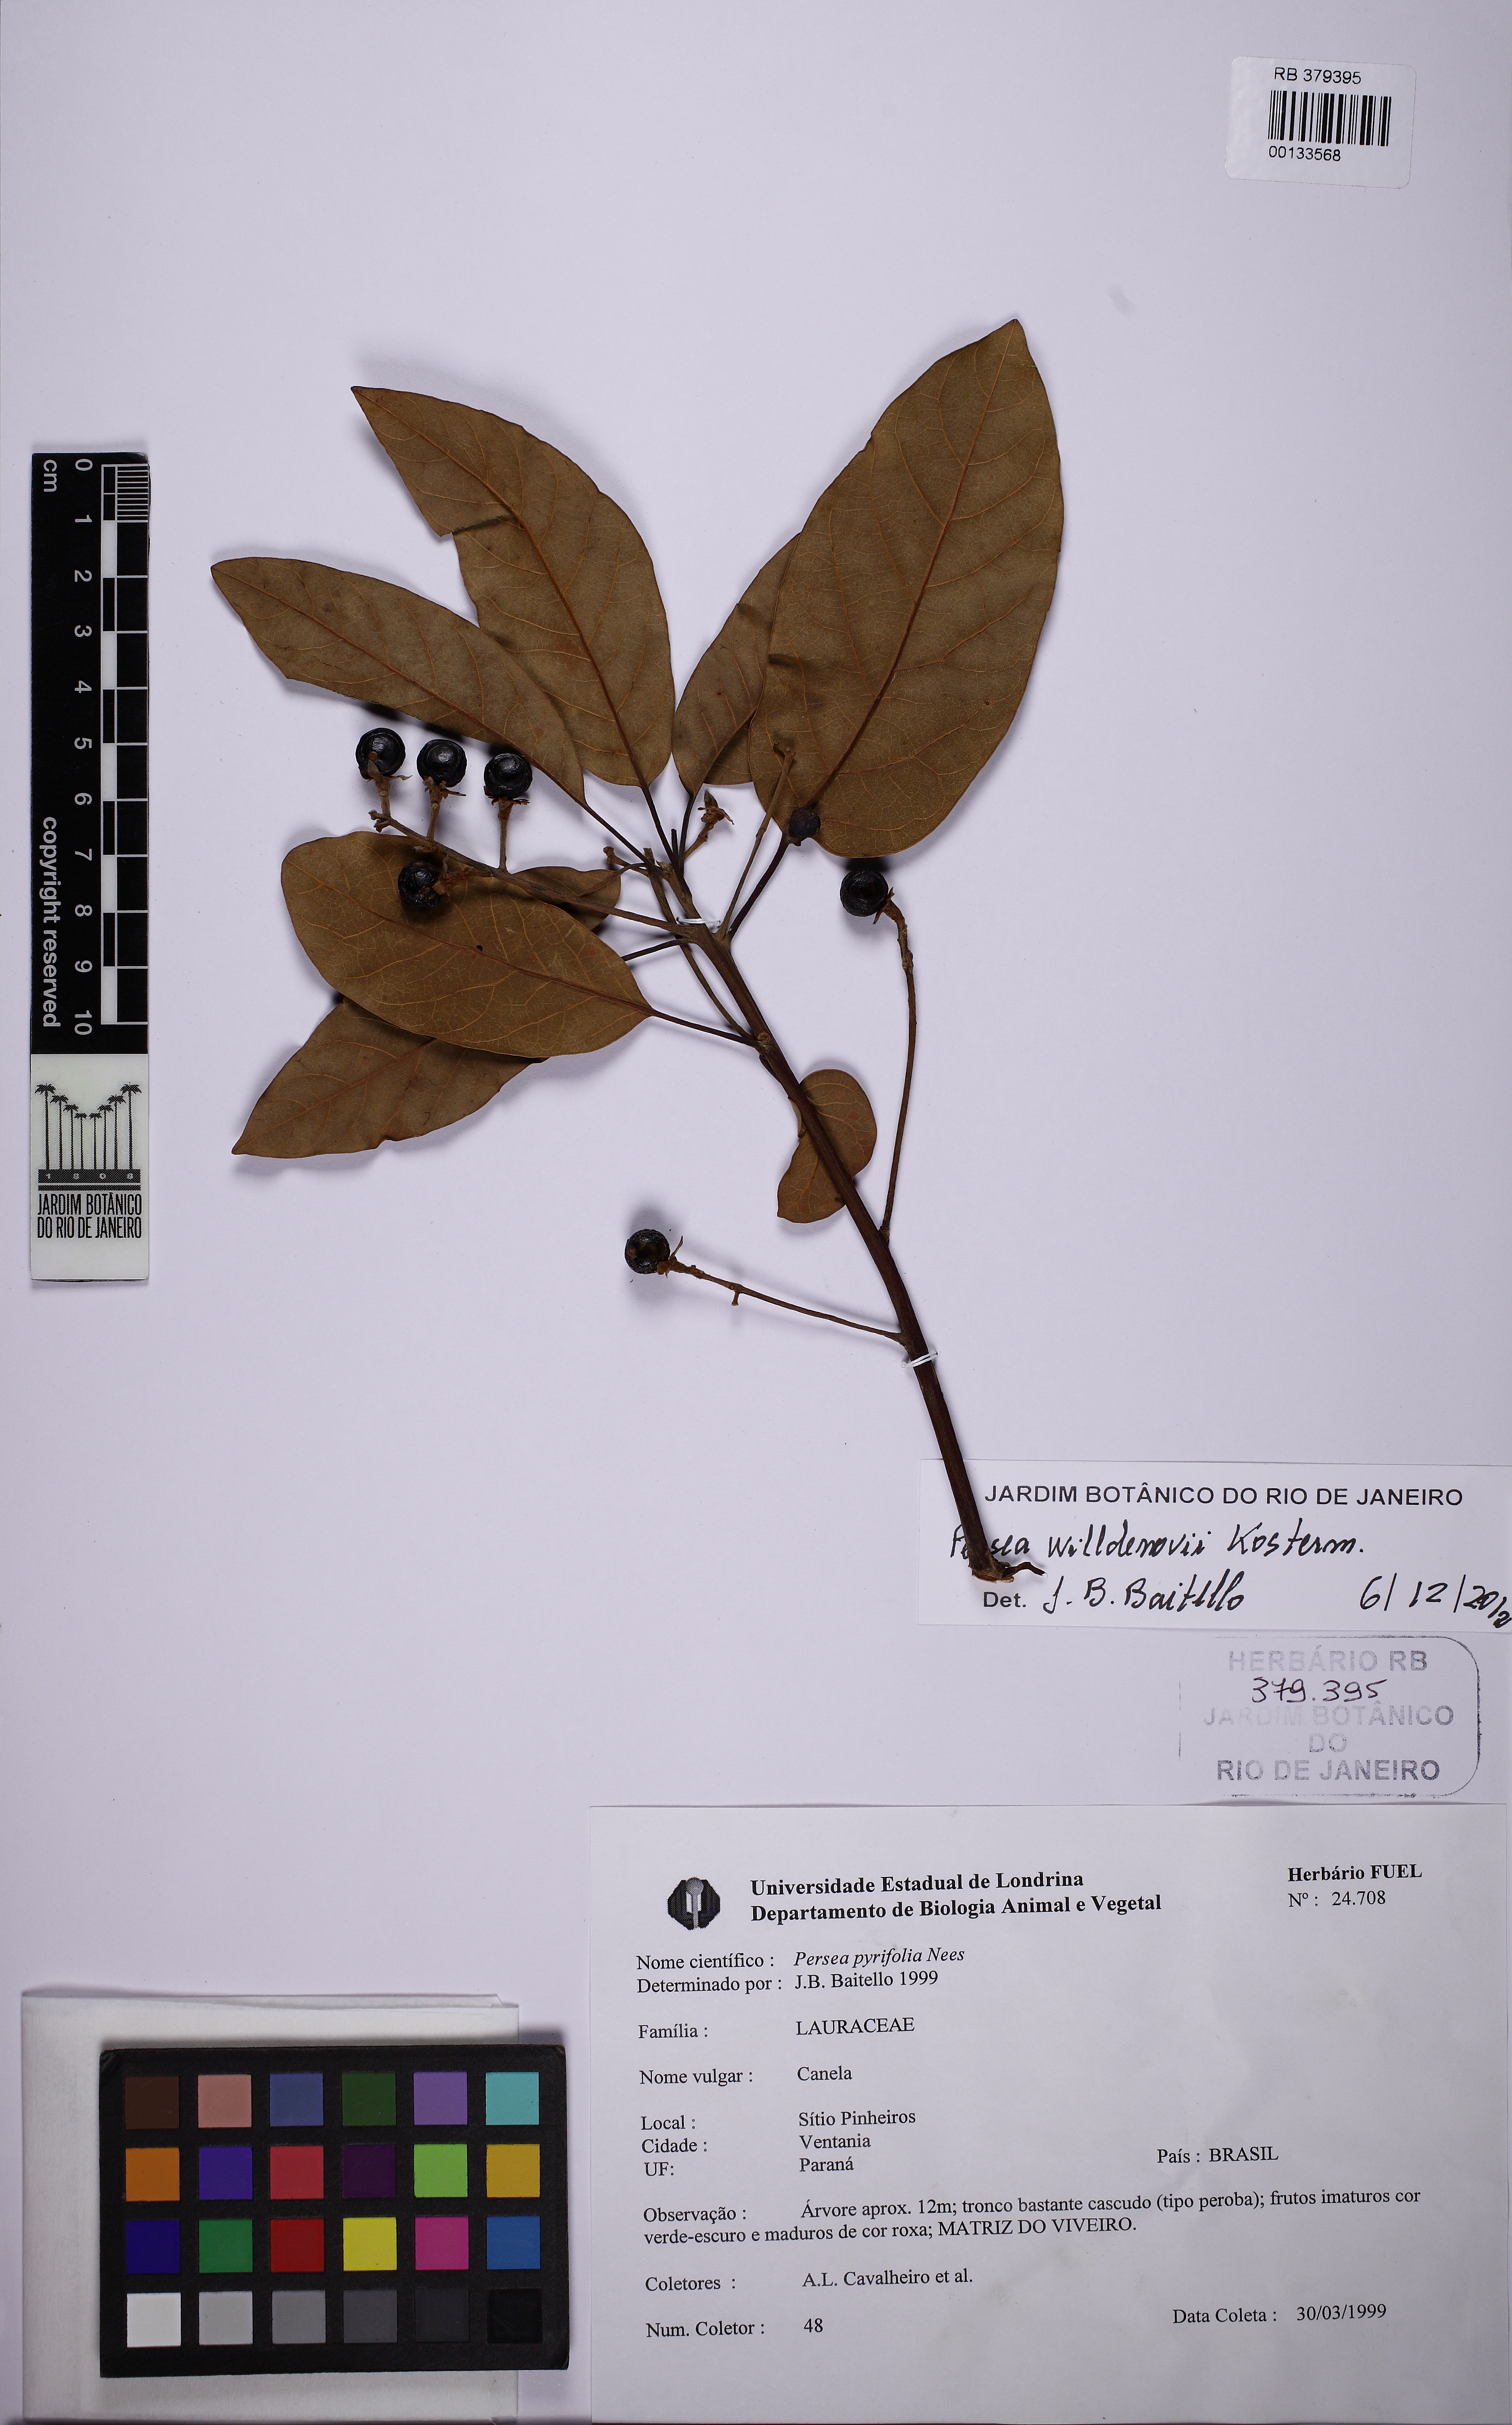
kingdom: Plantae
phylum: Tracheophyta
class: Magnoliopsida
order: Laurales
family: Lauraceae
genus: Persea
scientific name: Persea willdenovii
